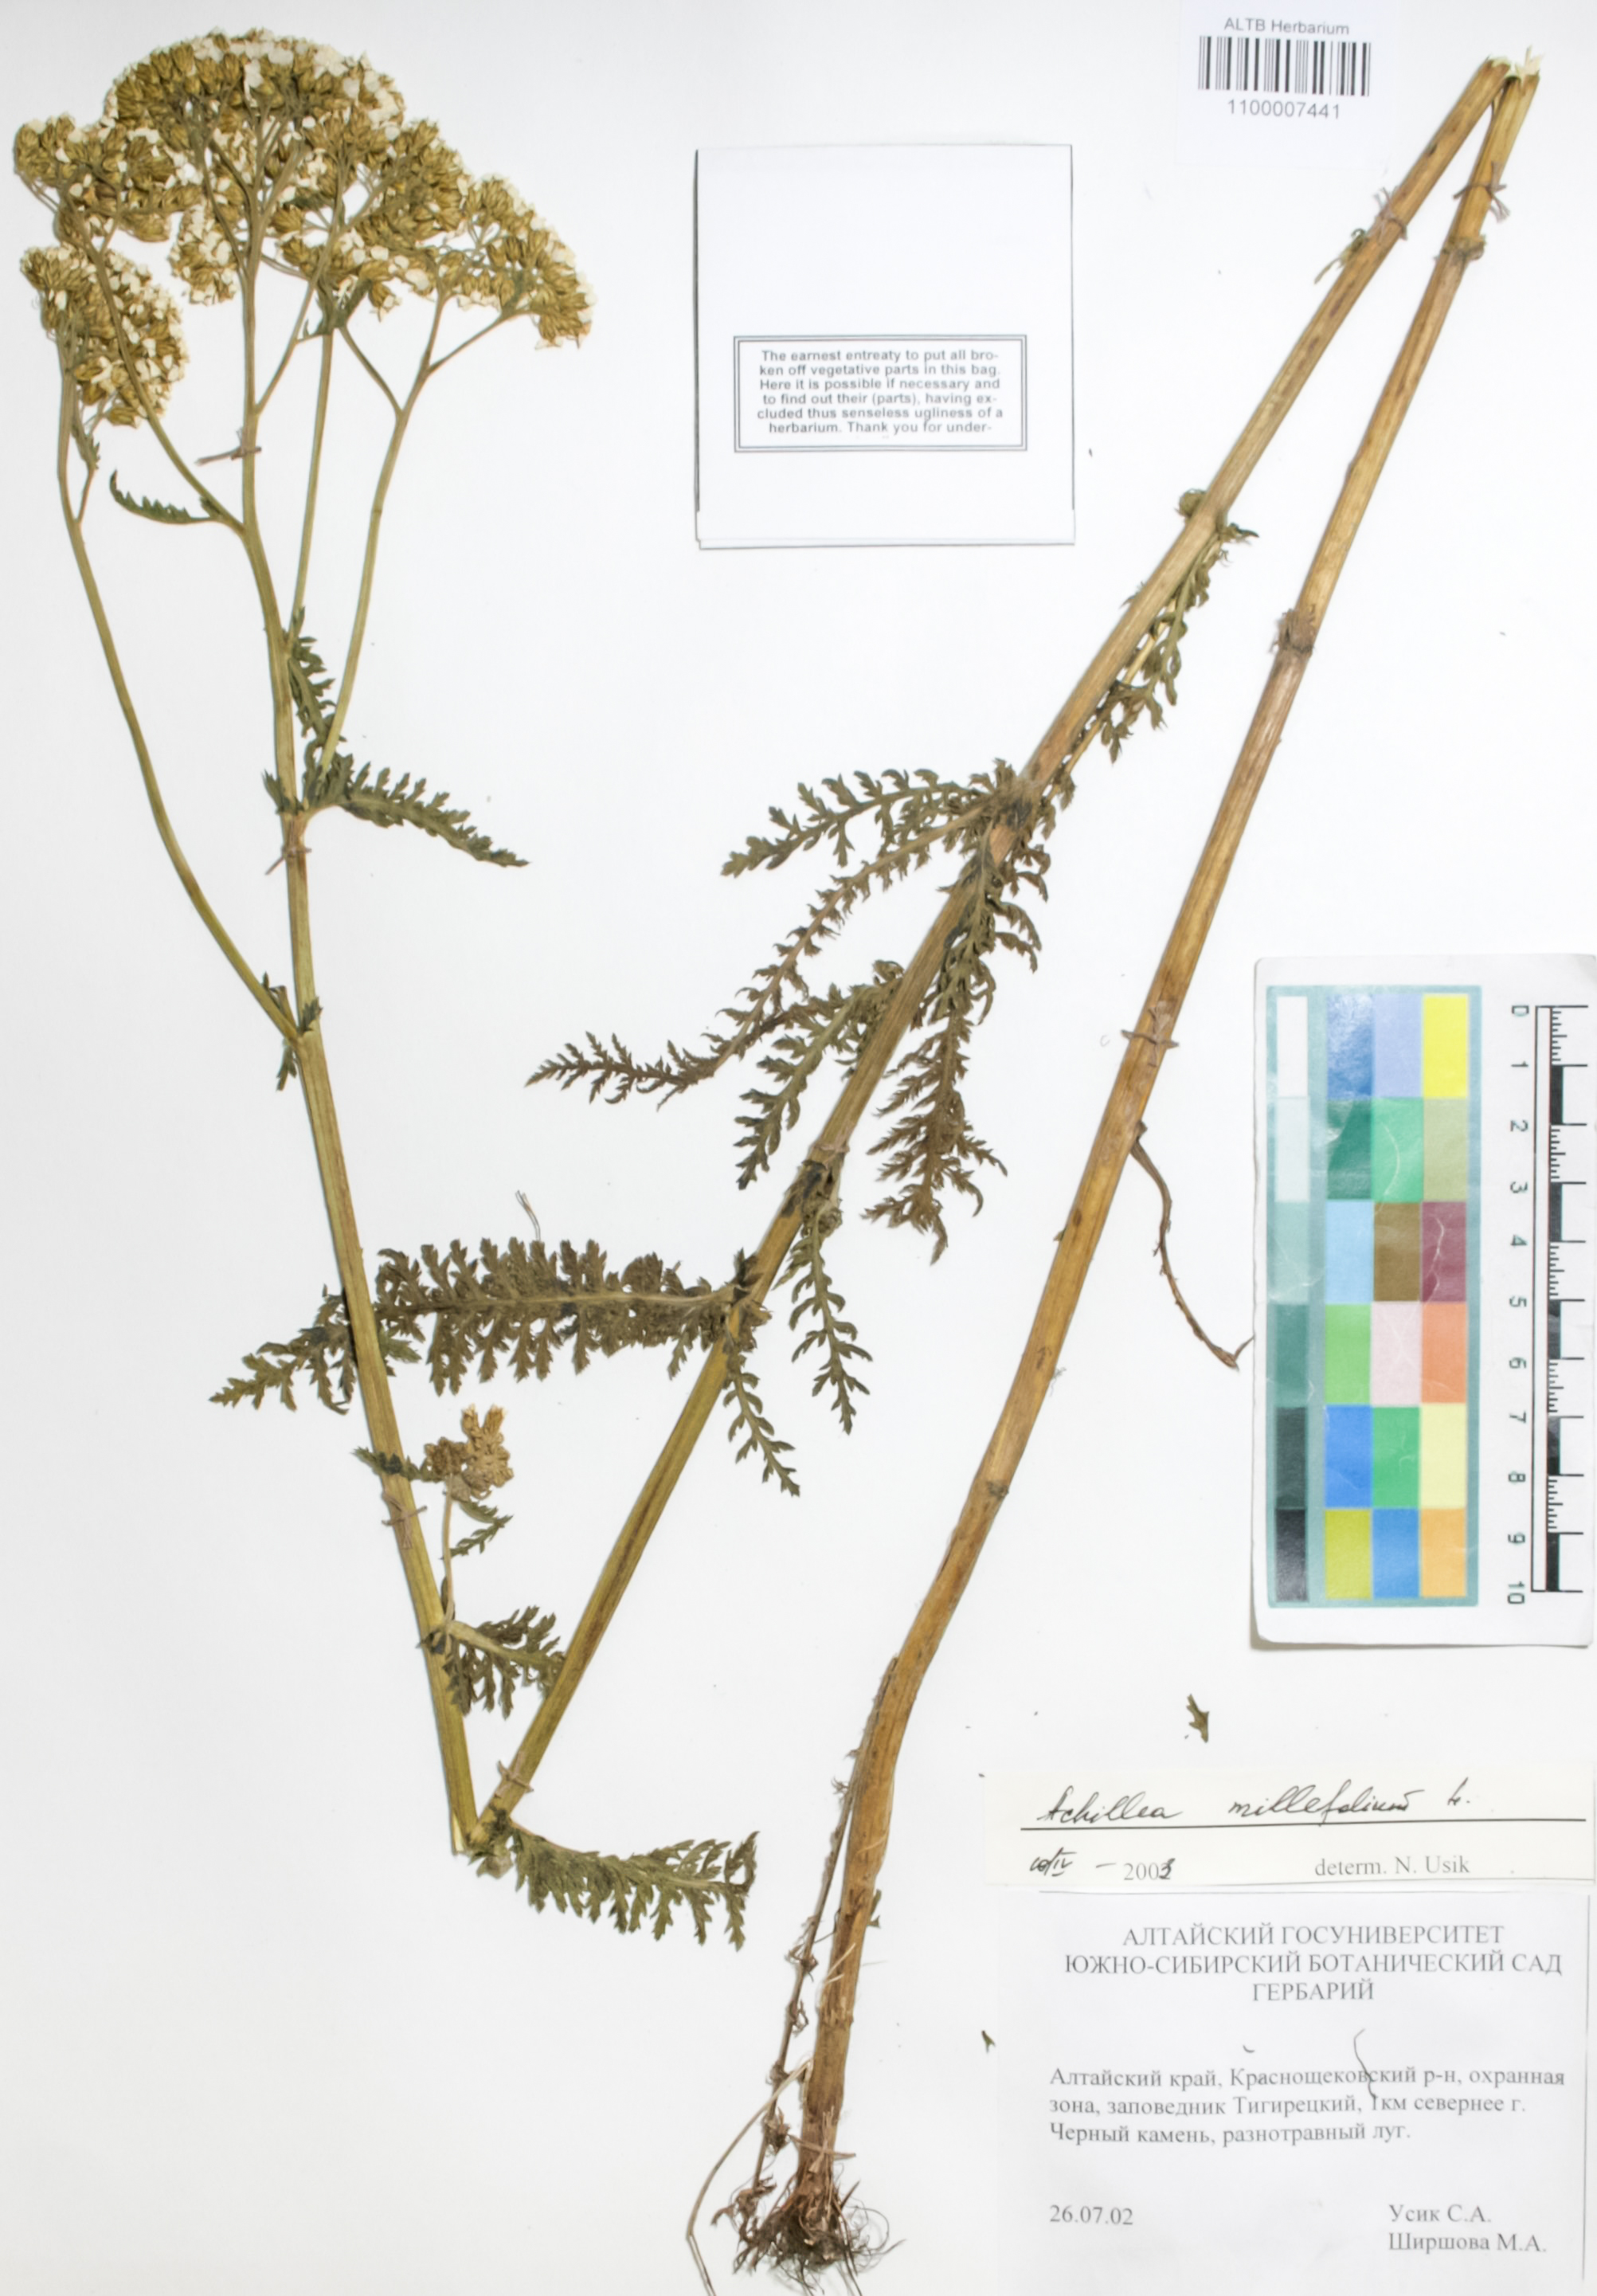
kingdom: Plantae
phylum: Tracheophyta
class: Magnoliopsida
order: Asterales
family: Asteraceae
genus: Achillea
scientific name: Achillea millefolium
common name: Yarrow
